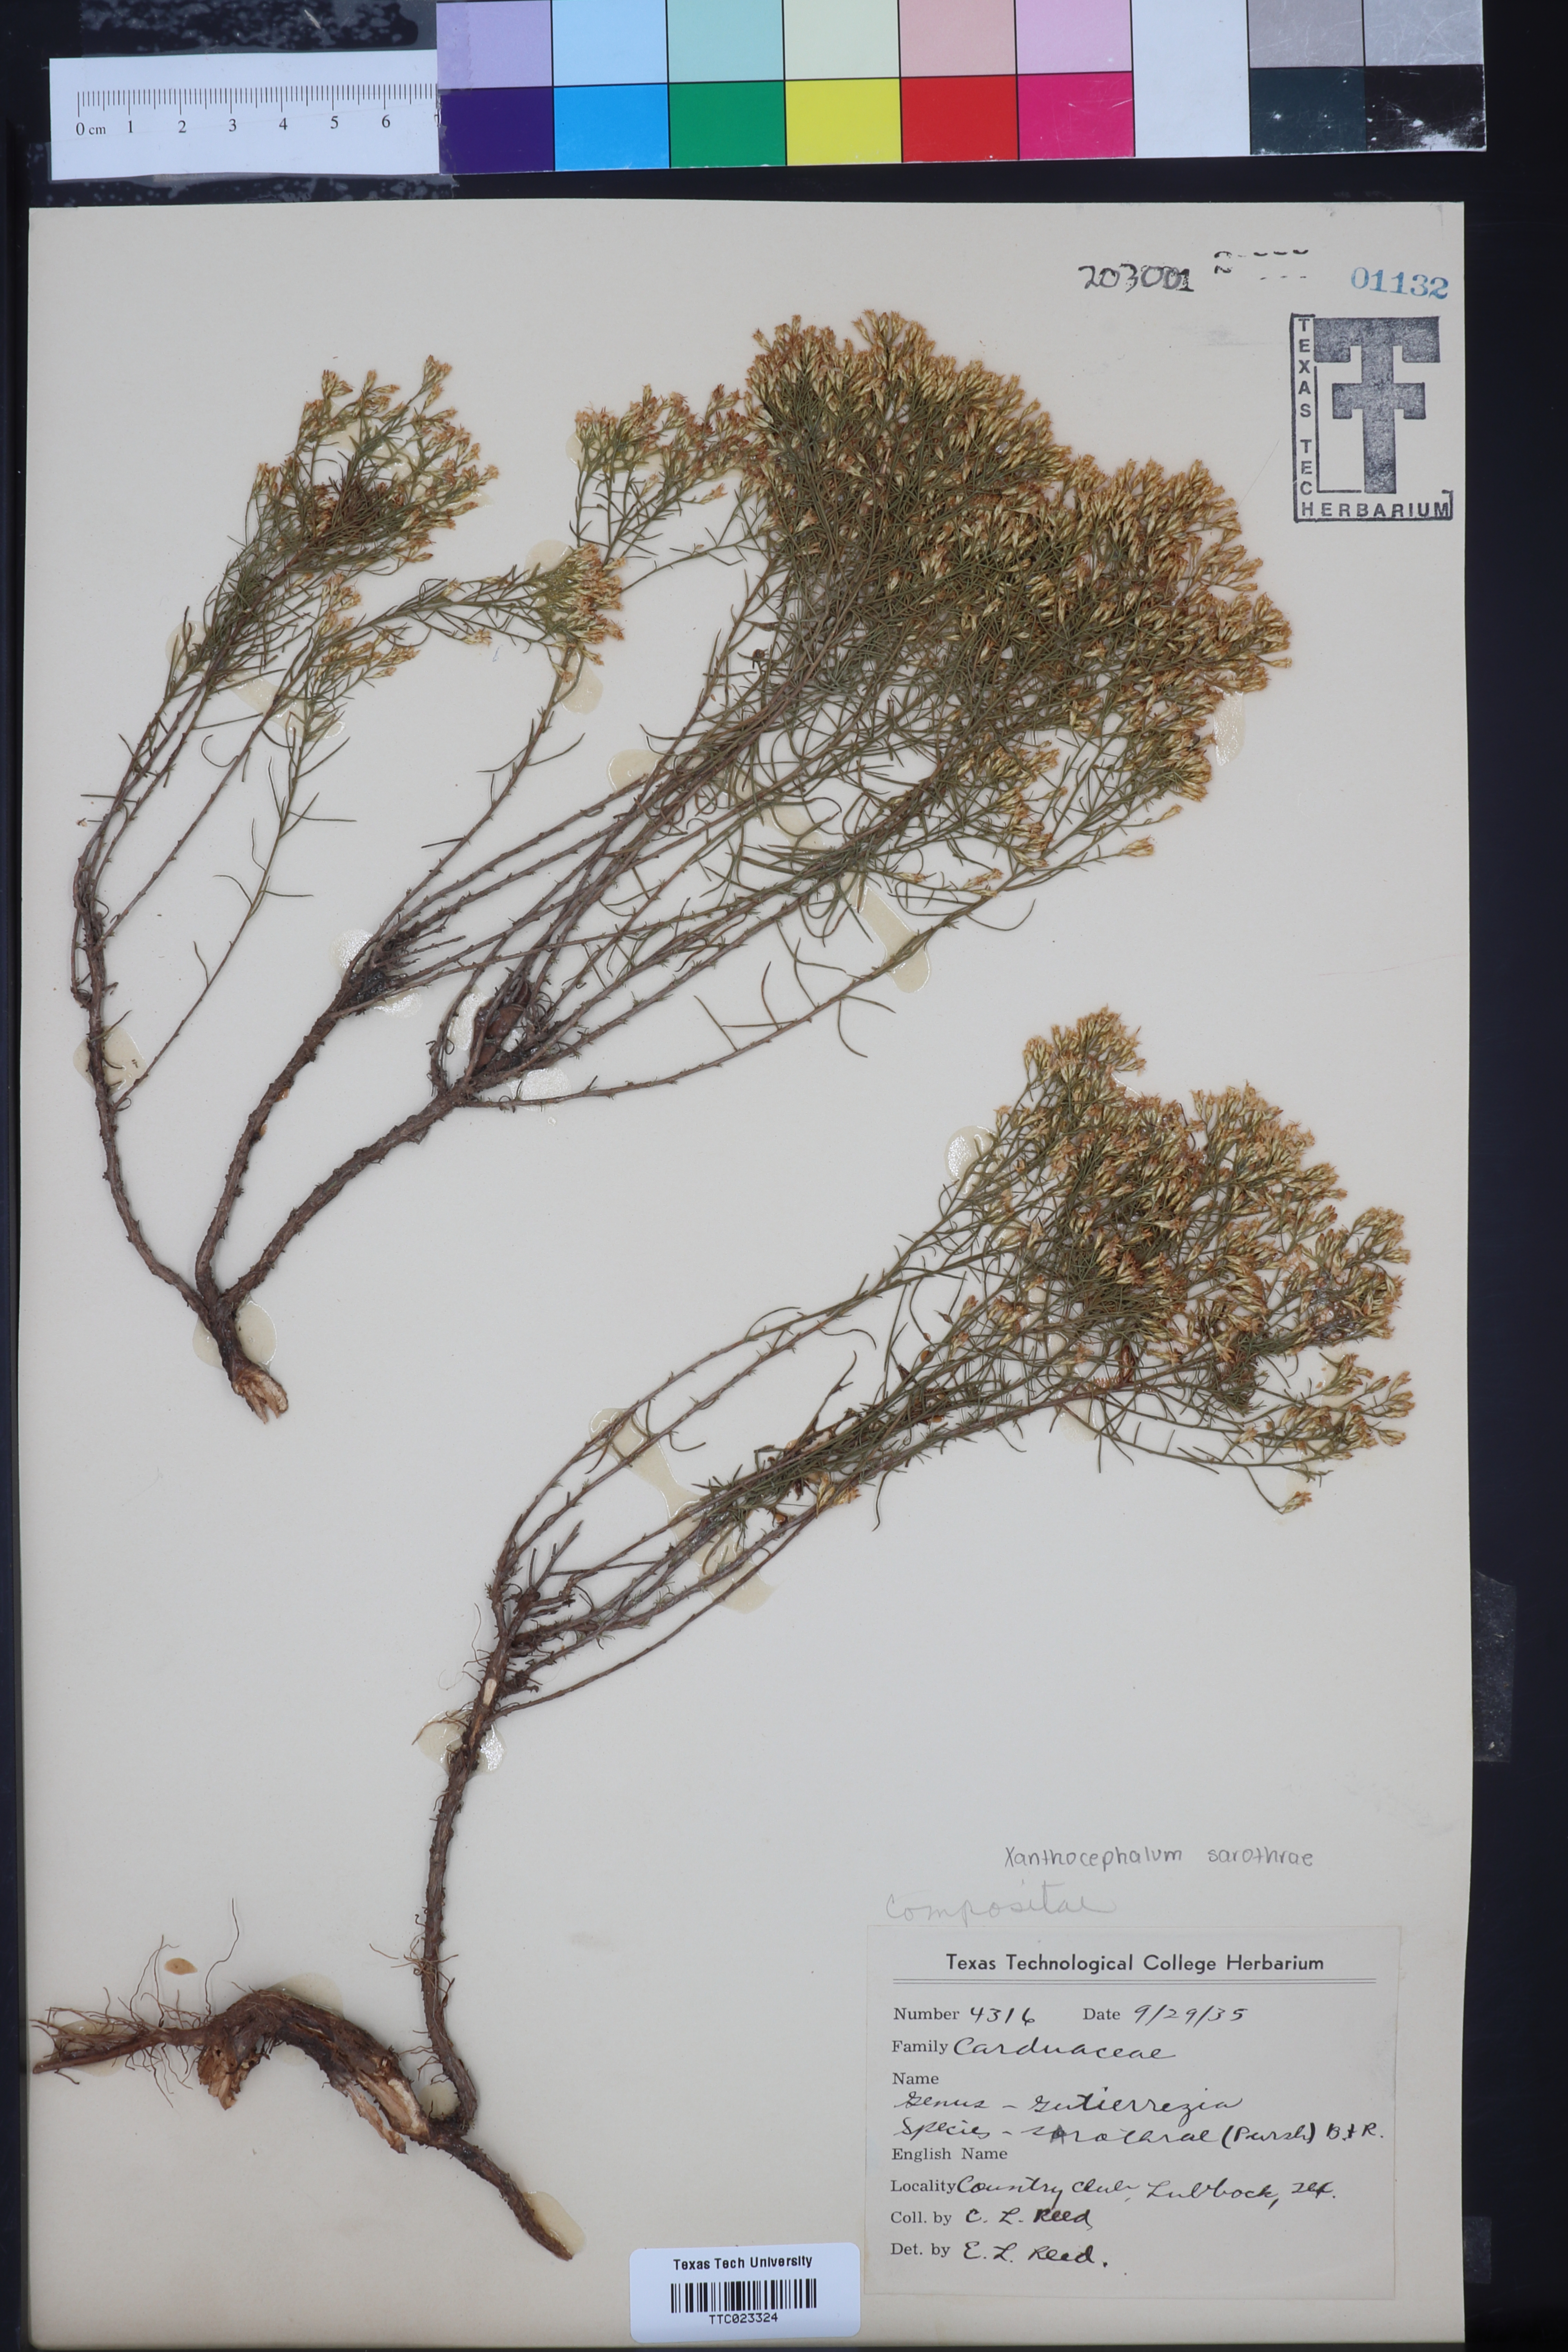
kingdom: Plantae
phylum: Tracheophyta
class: Magnoliopsida
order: Asterales
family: Asteraceae
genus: Gutierrezia
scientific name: Gutierrezia sarothrae
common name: Broom snakeweed
